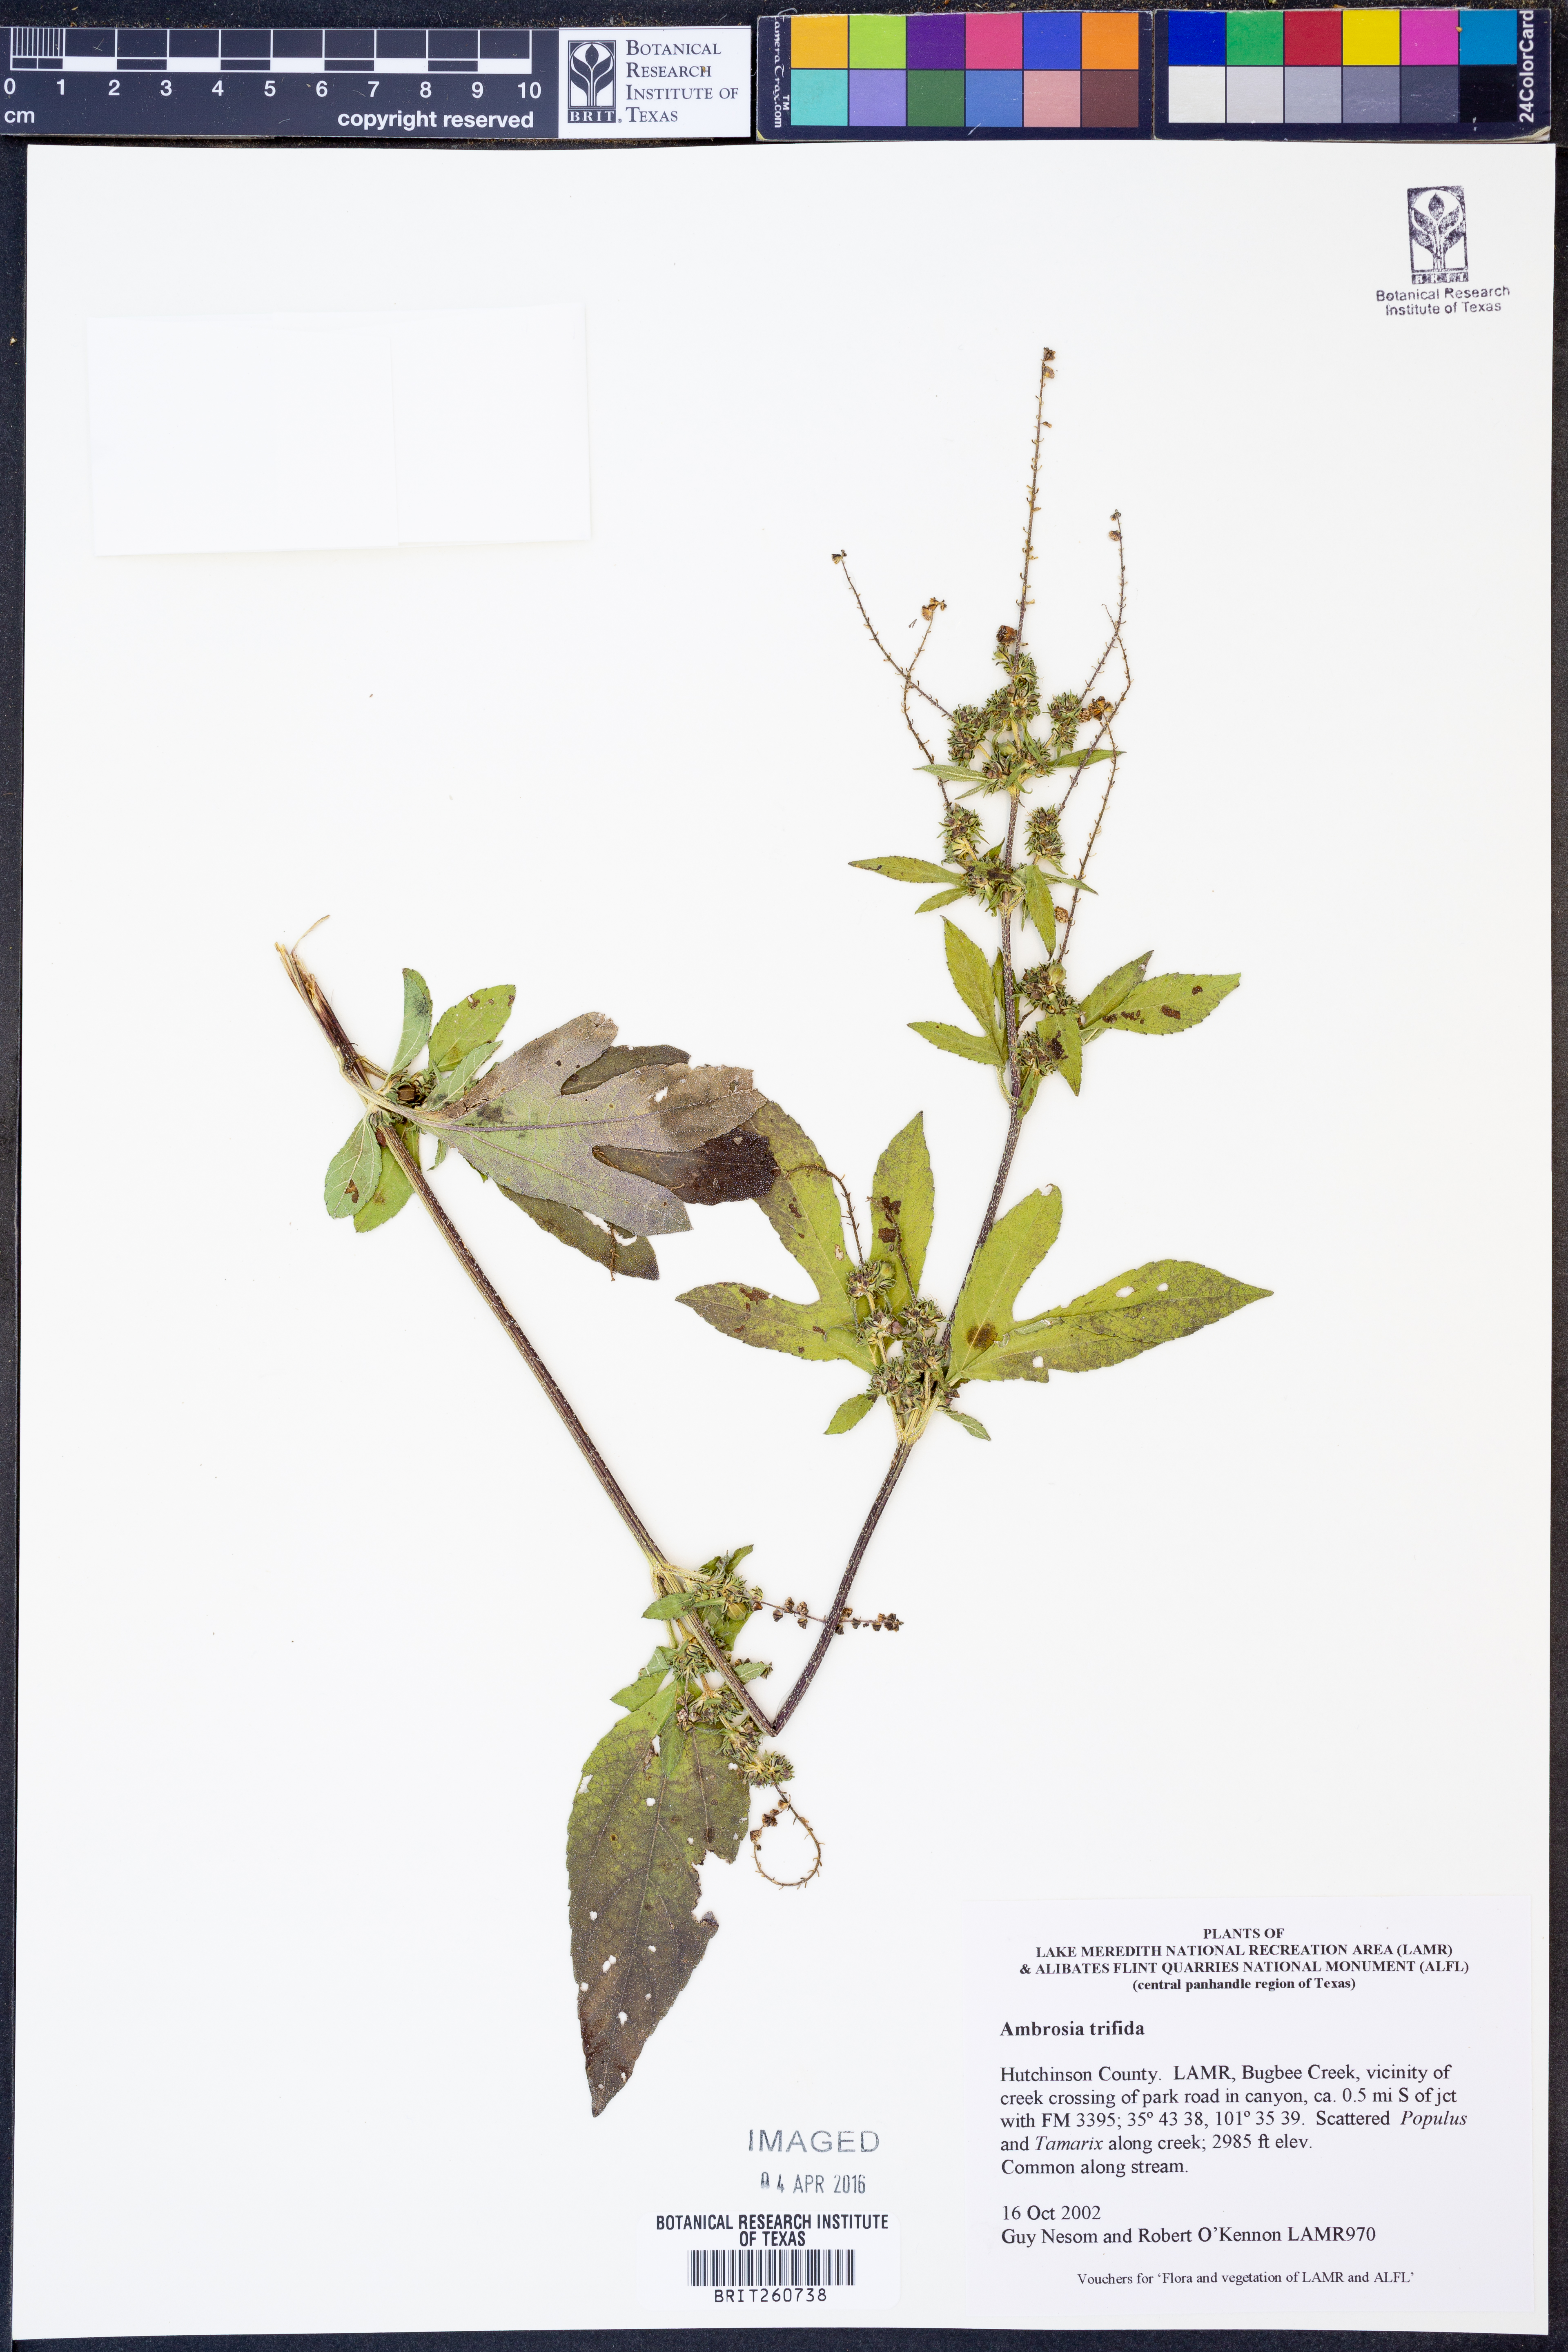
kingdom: Plantae
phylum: Tracheophyta
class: Magnoliopsida
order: Asterales
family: Asteraceae
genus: Ambrosia
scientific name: Ambrosia trifida
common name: Giant ragweed
